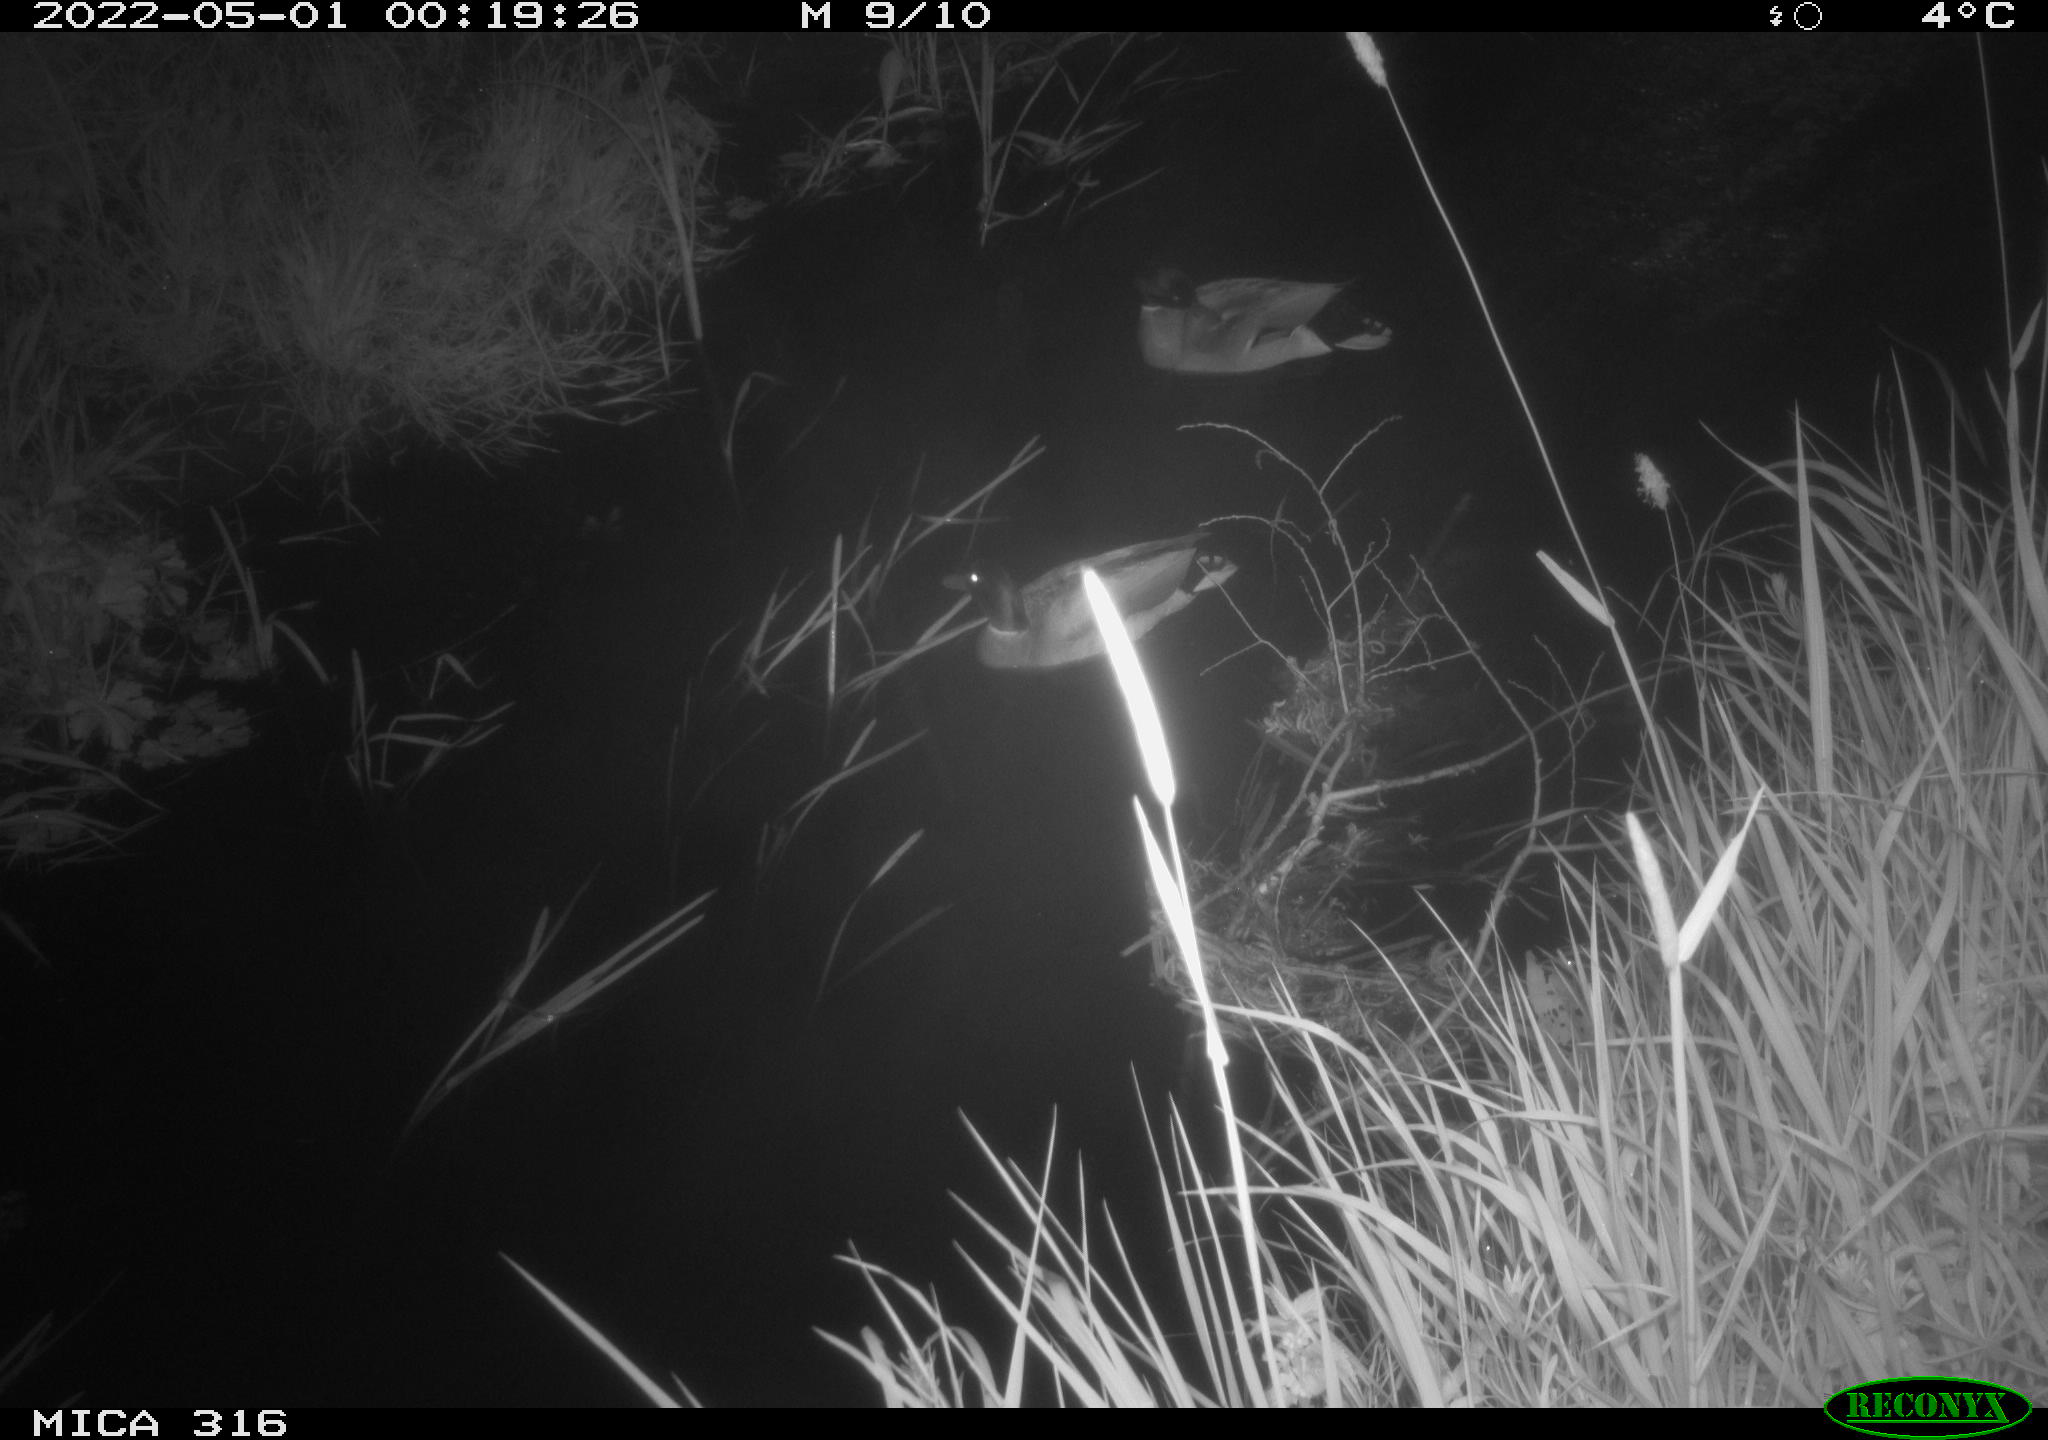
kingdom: Animalia
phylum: Chordata
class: Aves
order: Anseriformes
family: Anatidae
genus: Anas
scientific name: Anas platyrhynchos
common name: Mallard
